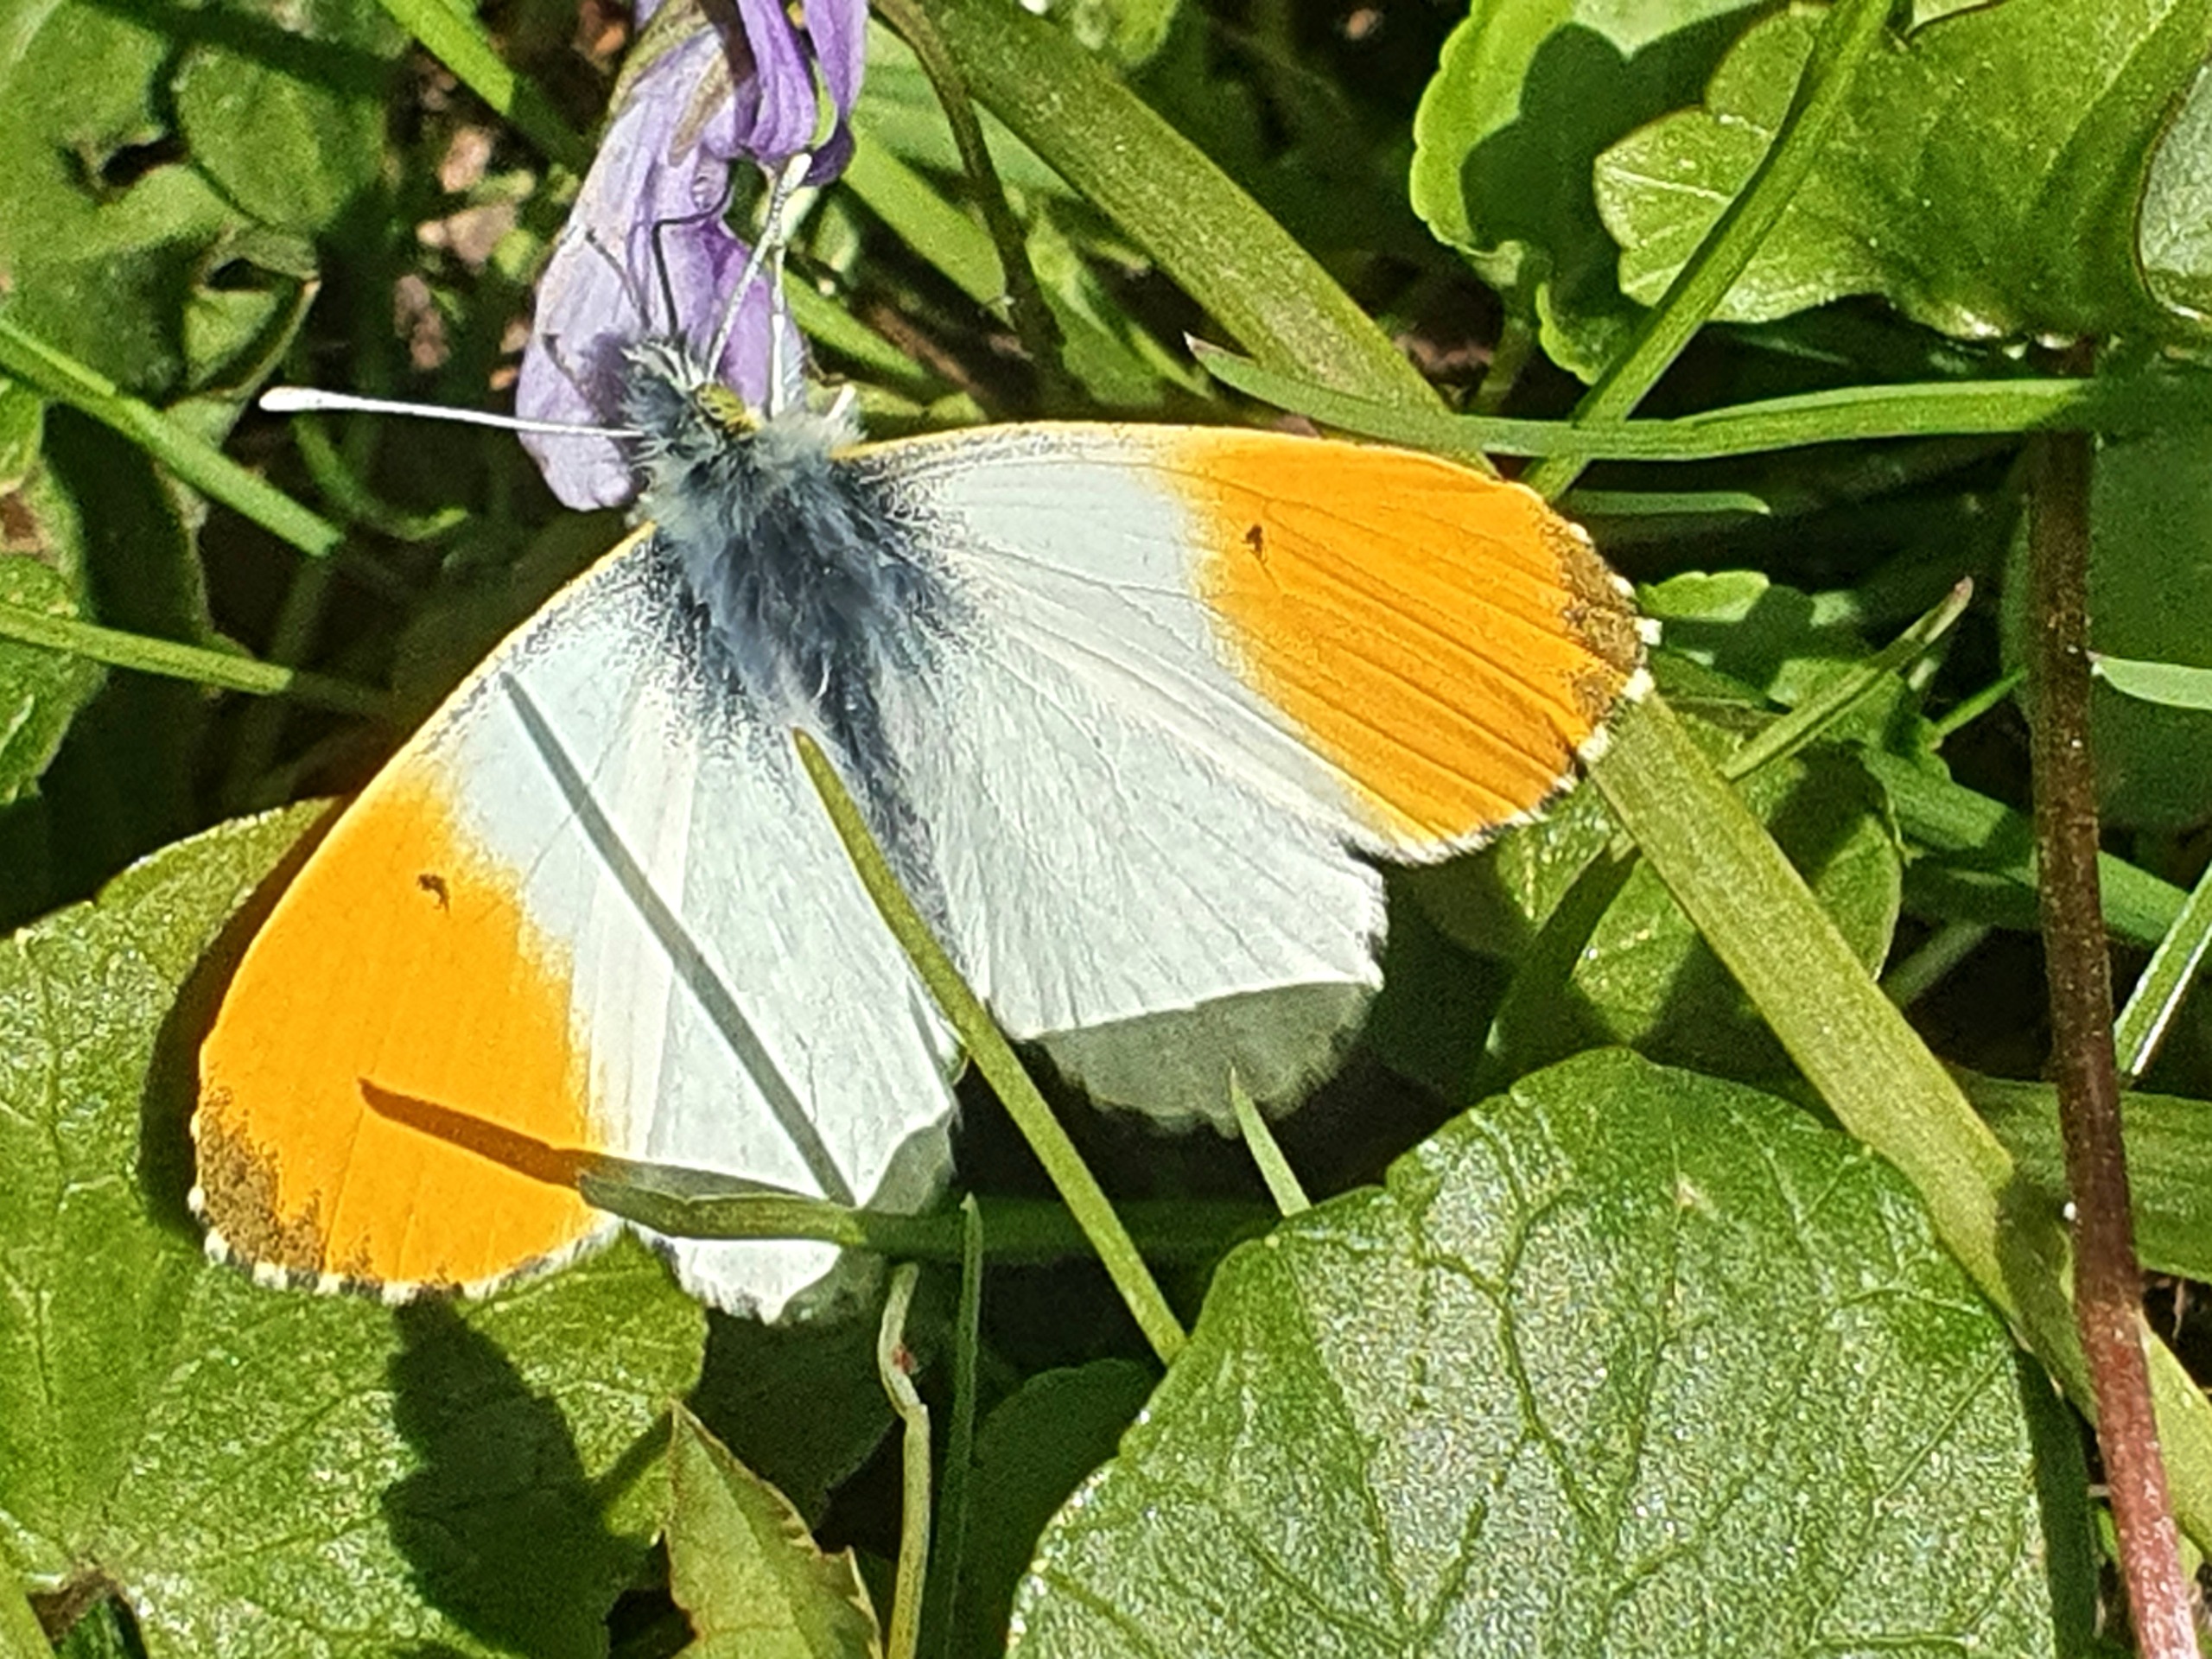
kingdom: Animalia
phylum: Arthropoda
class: Insecta
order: Lepidoptera
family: Pieridae
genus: Anthocharis
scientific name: Anthocharis cardamines
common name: Aurora
